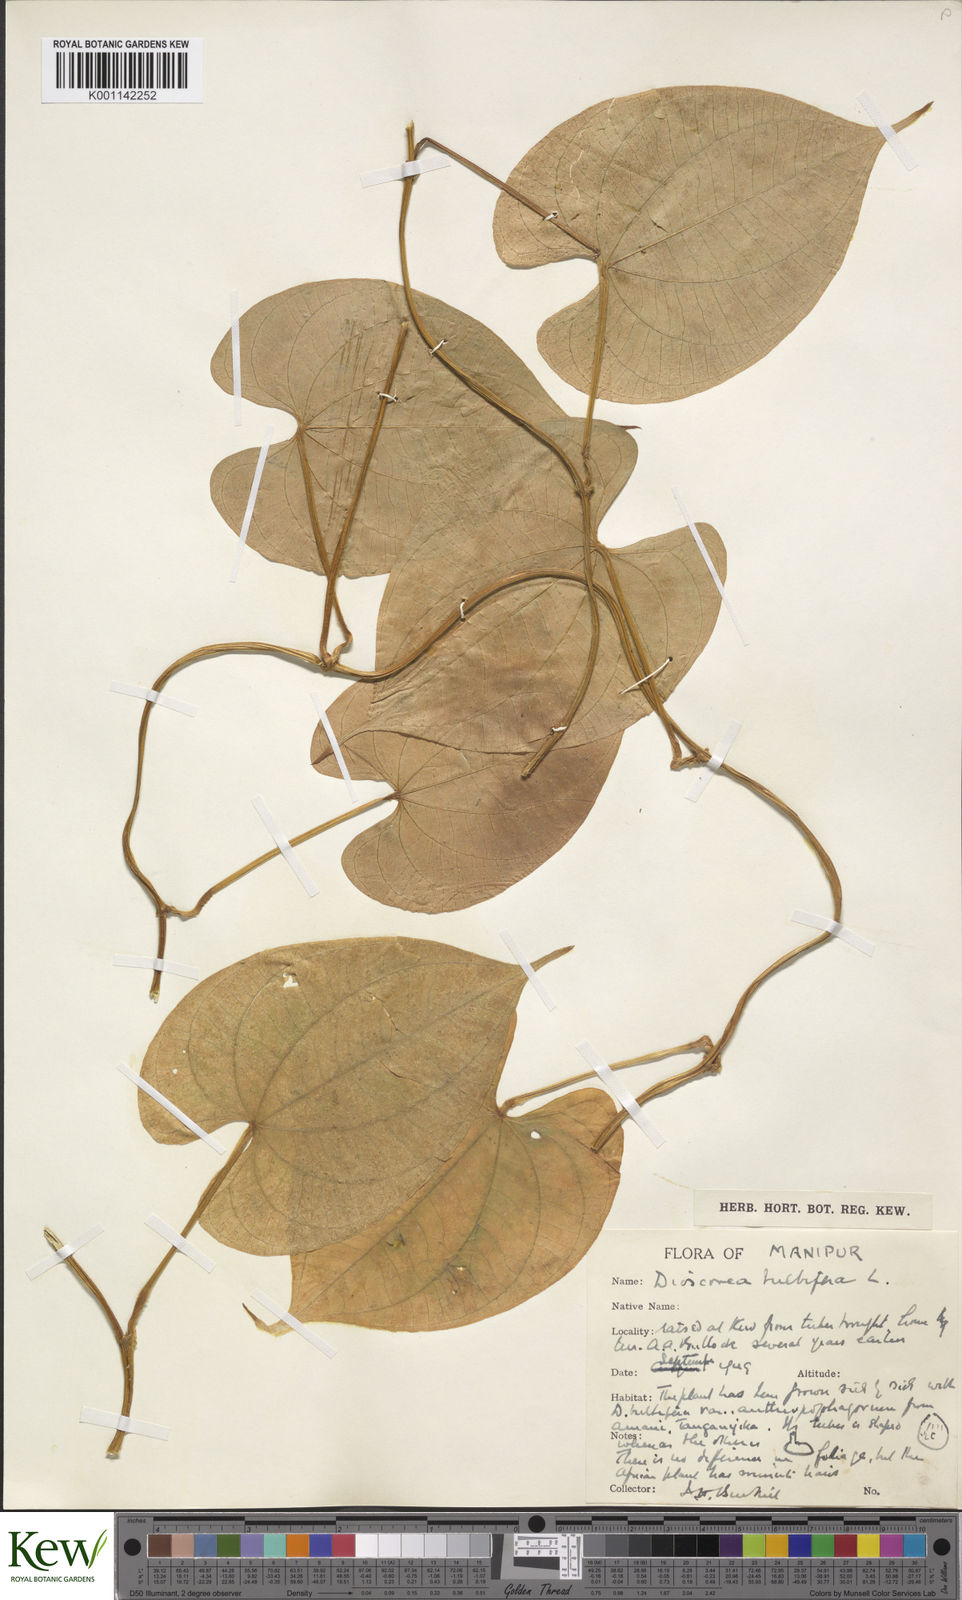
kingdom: Plantae
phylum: Tracheophyta
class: Liliopsida
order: Dioscoreales
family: Dioscoreaceae
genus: Dioscorea
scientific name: Dioscorea bulbifera
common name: Air yam
